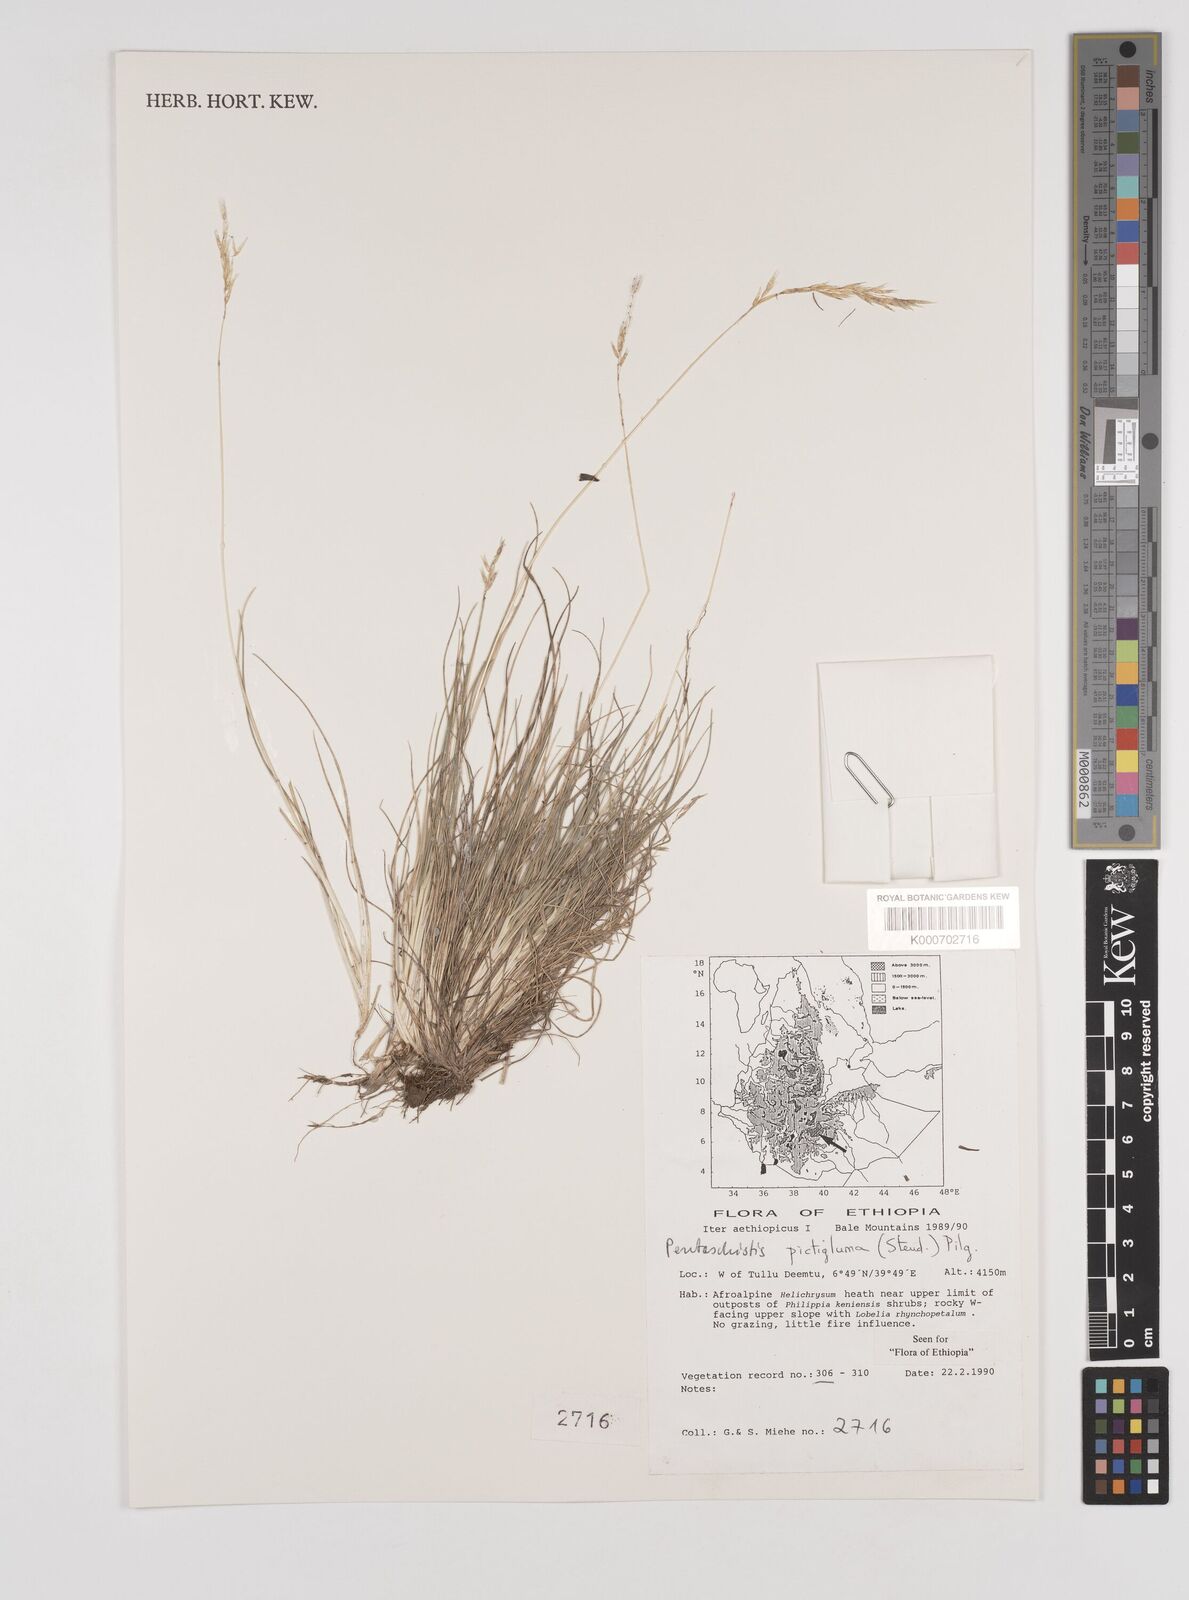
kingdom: Plantae
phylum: Tracheophyta
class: Liliopsida
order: Poales
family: Poaceae
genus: Pentameris
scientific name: Pentameris pictigluma
